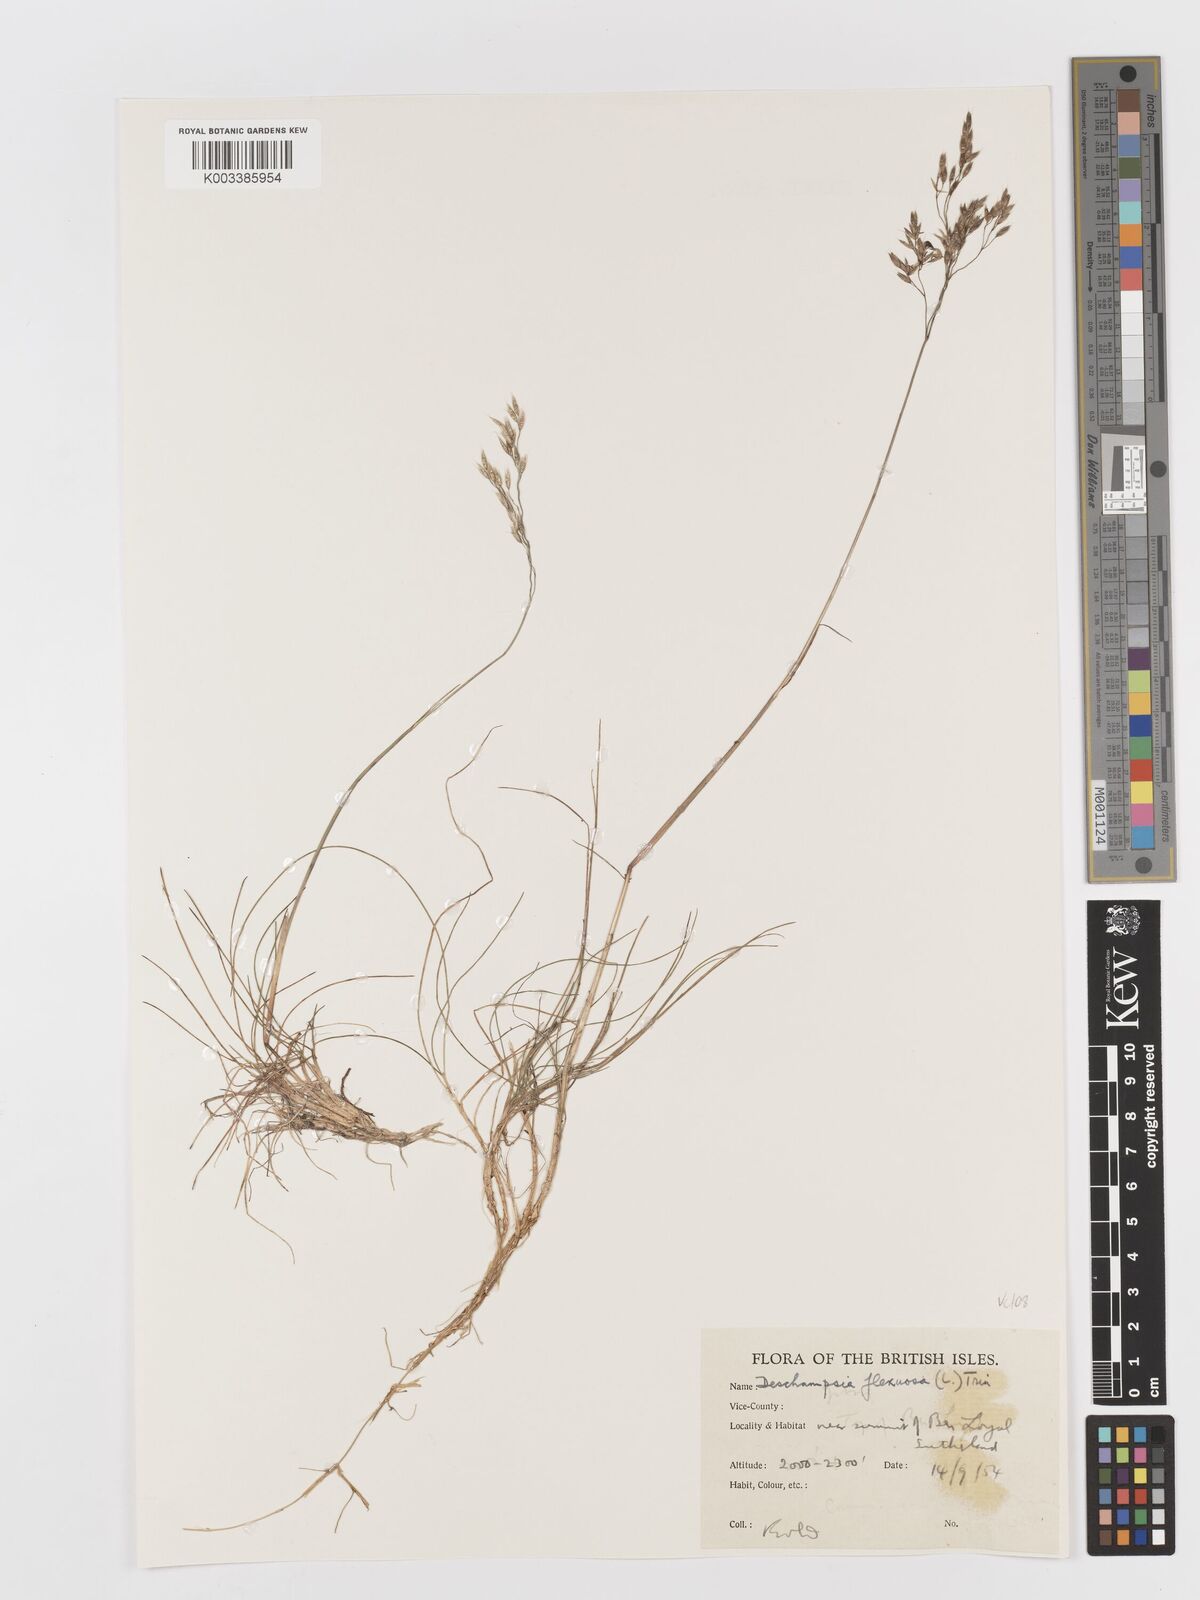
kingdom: Plantae
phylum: Tracheophyta
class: Liliopsida
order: Poales
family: Poaceae
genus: Avenella
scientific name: Avenella flexuosa
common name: Wavy hairgrass
